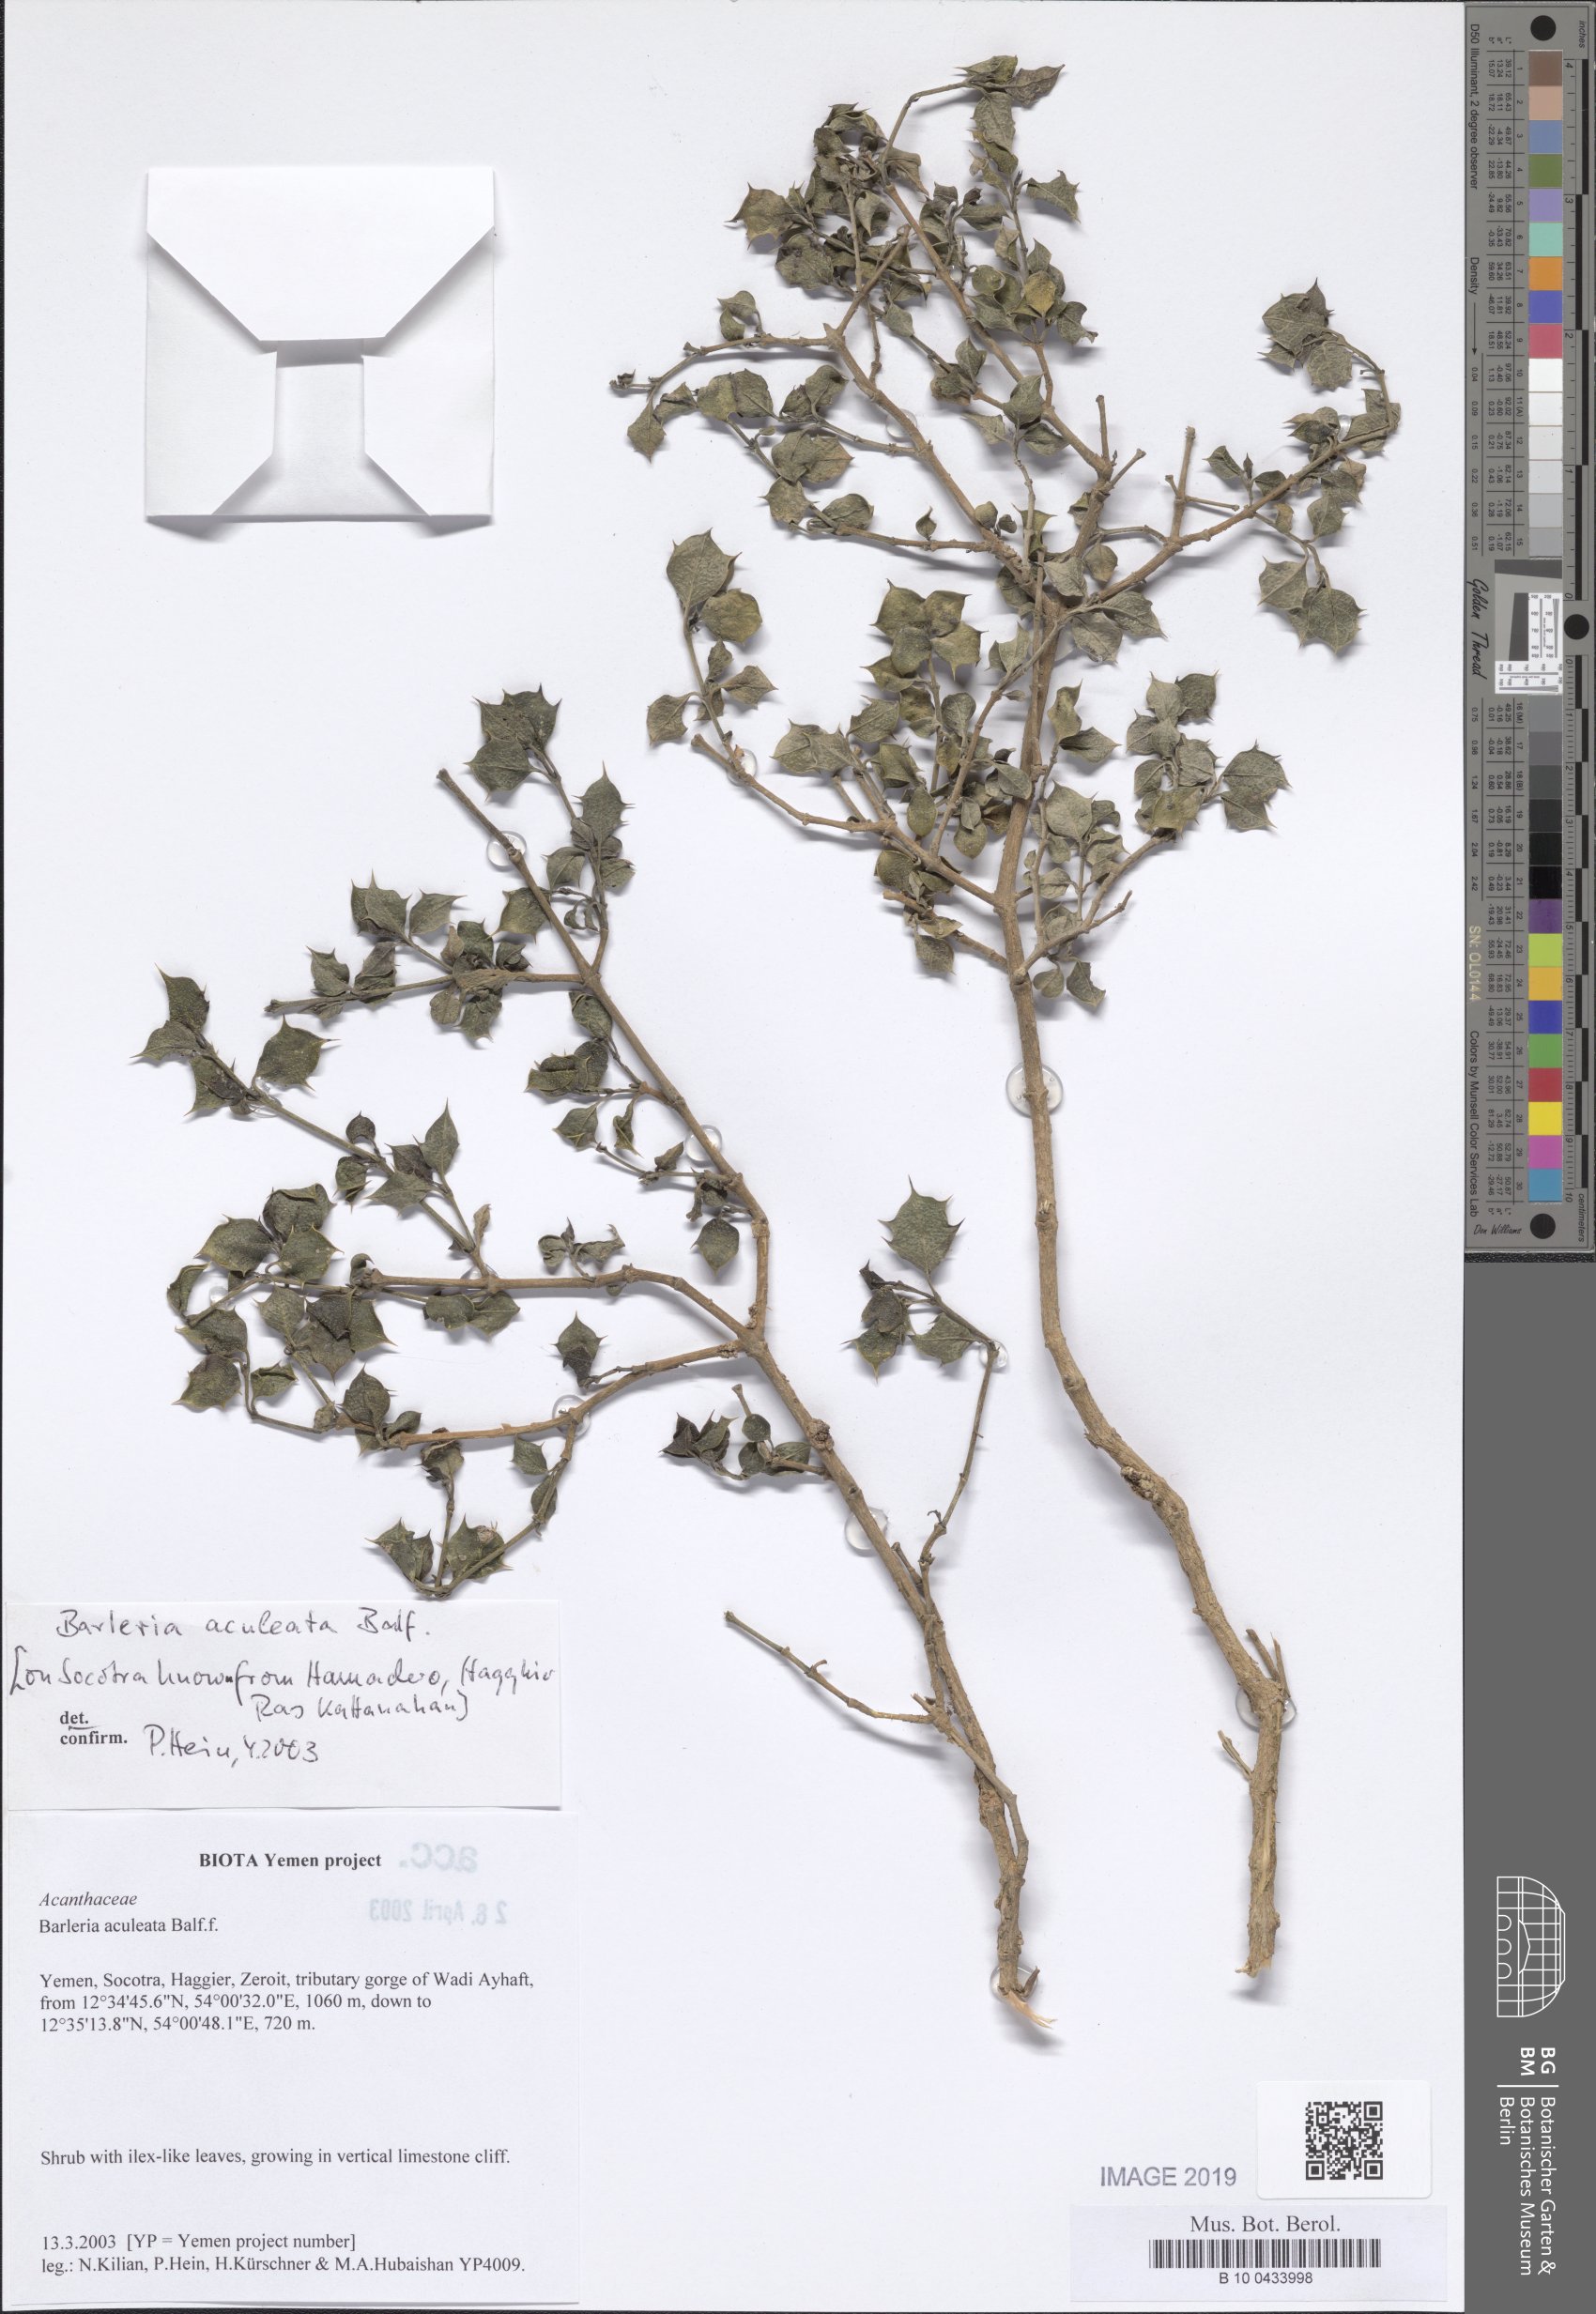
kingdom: Plantae
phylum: Tracheophyta
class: Magnoliopsida
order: Lamiales
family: Acanthaceae
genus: Barleria
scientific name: Barleria aculeata
